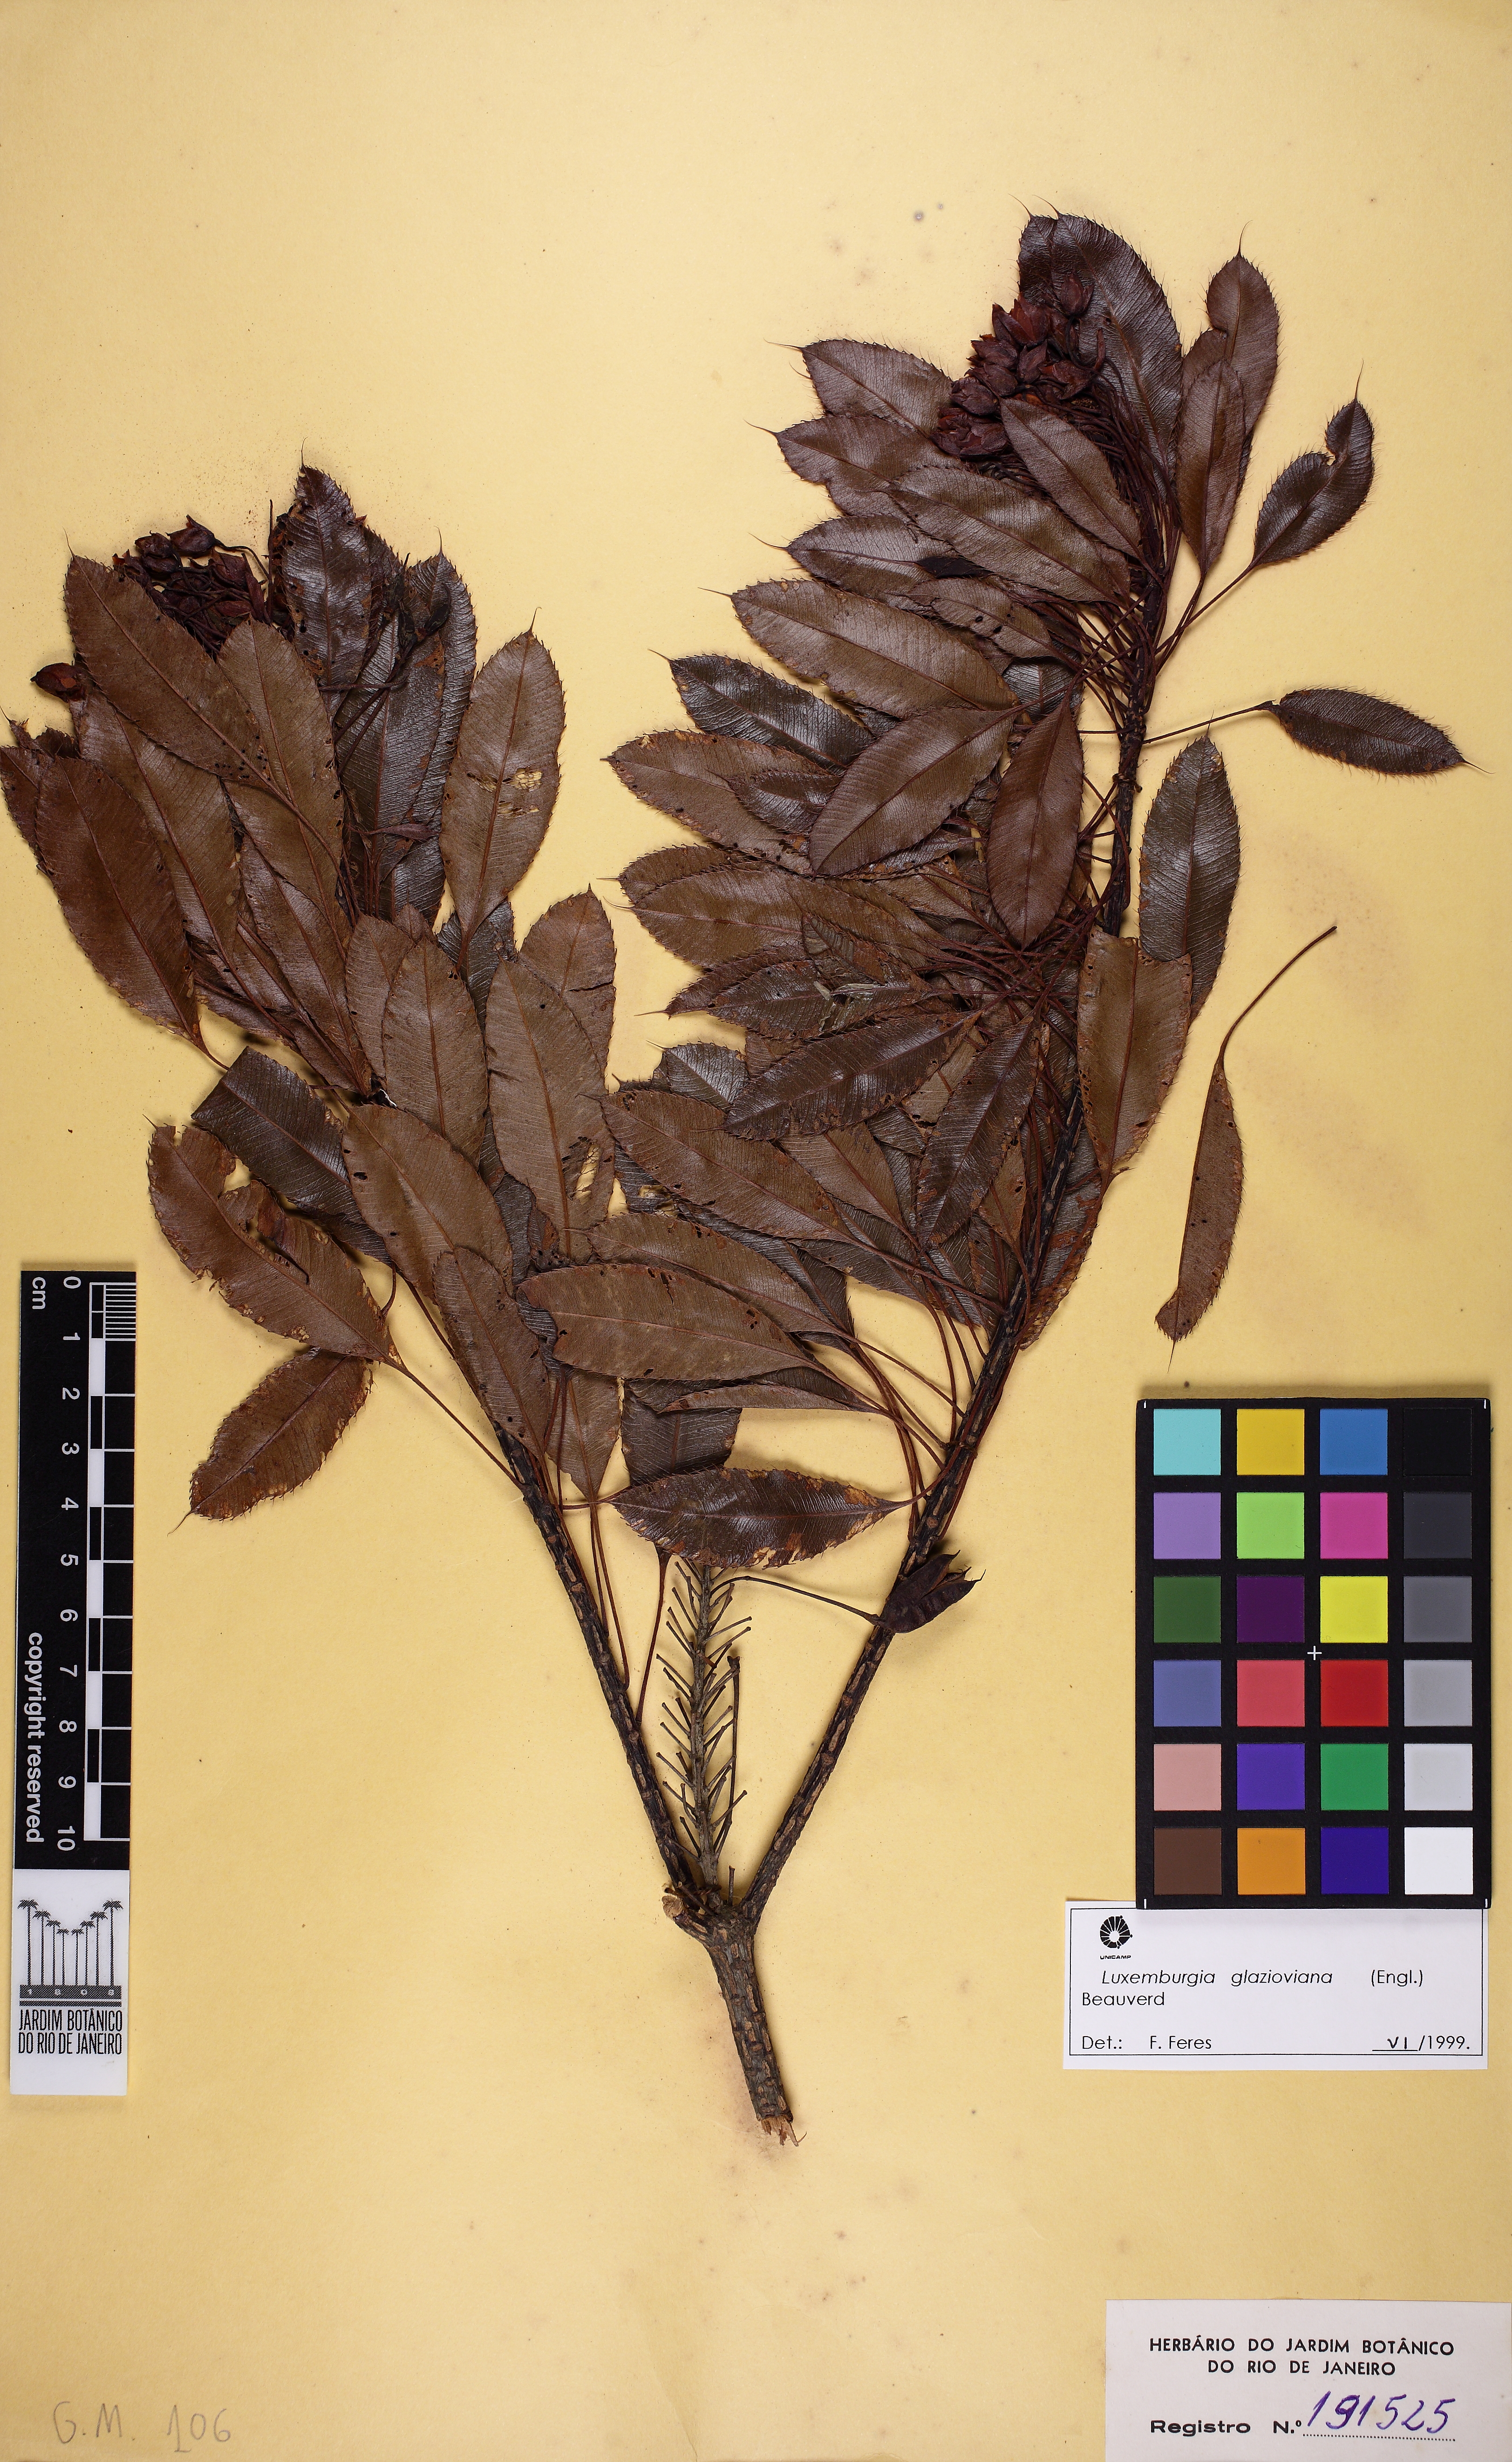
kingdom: Plantae
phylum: Tracheophyta
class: Magnoliopsida
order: Malpighiales
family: Ochnaceae
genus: Luxemburgia
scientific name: Luxemburgia glazioviana
